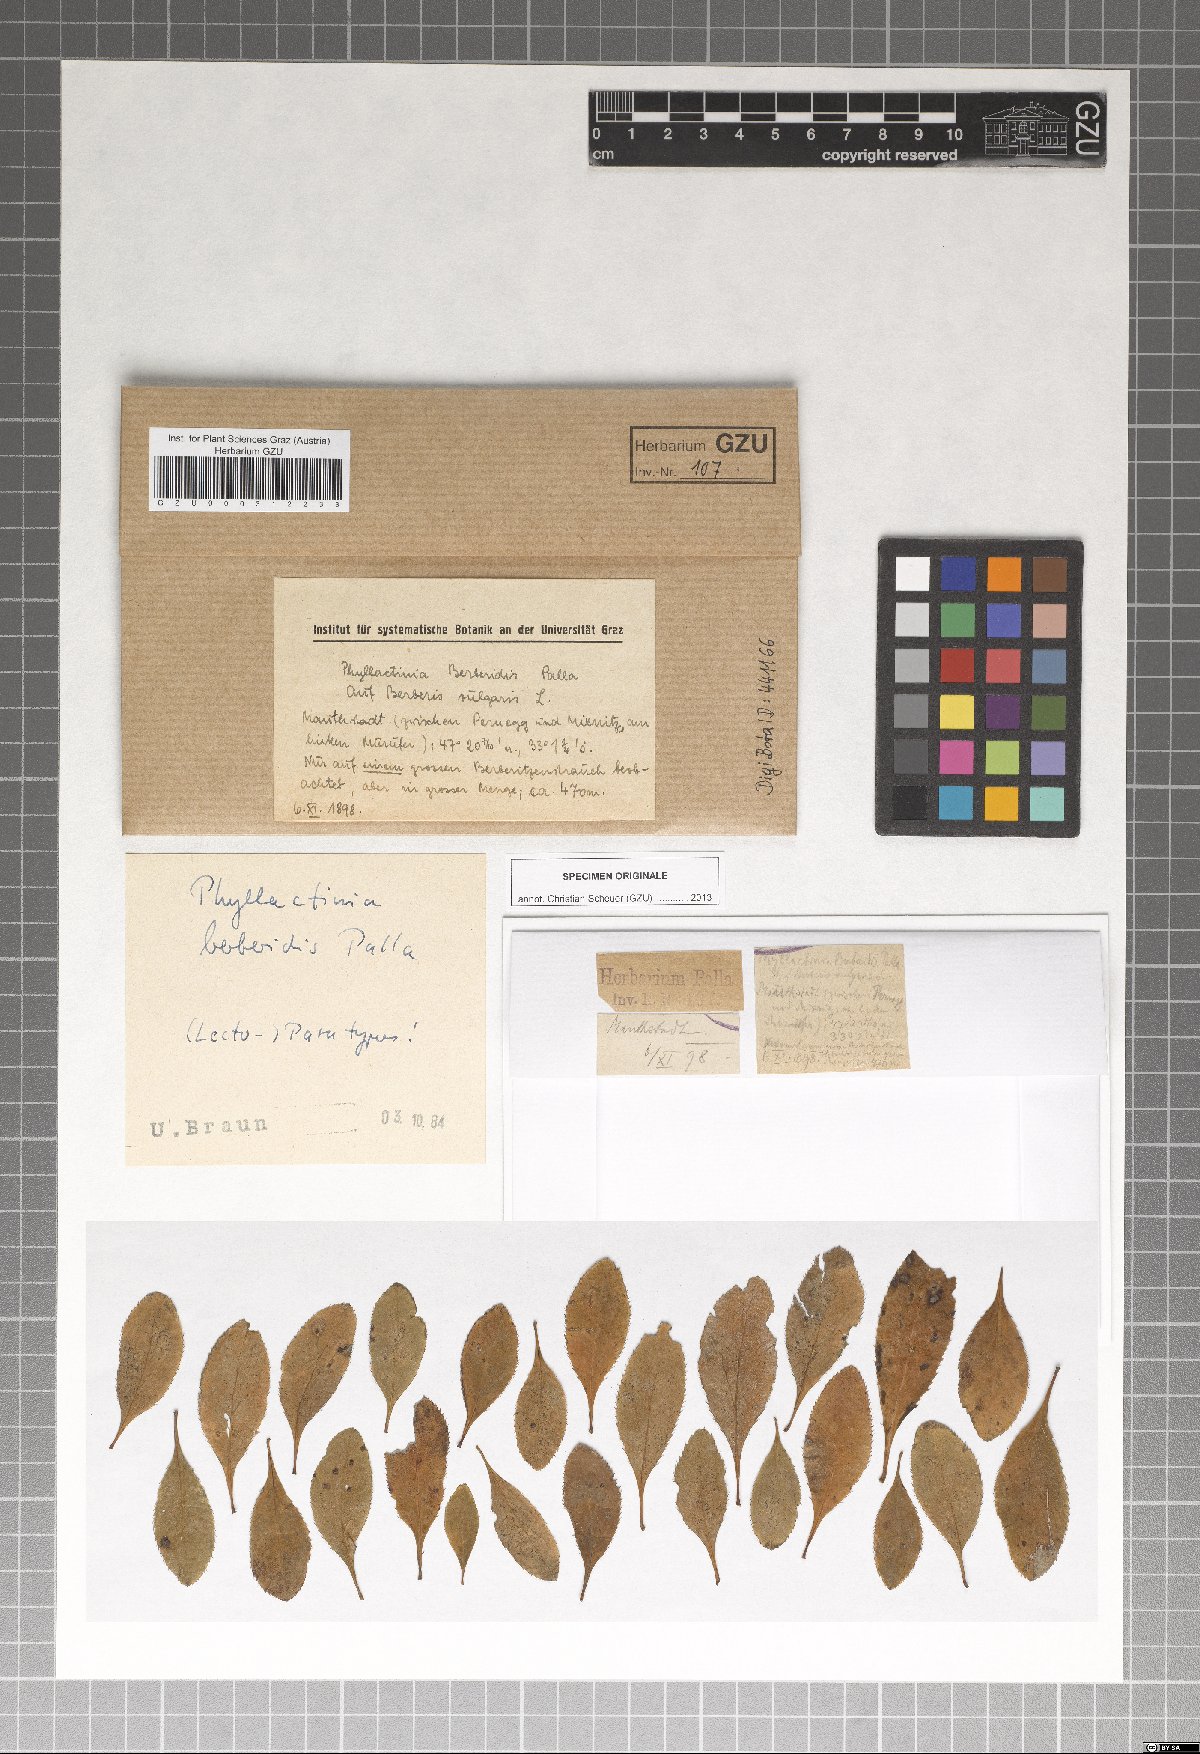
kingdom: Fungi
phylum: Ascomycota
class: Leotiomycetes
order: Helotiales
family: Erysiphaceae
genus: Phyllactinia
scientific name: Phyllactinia guttata
